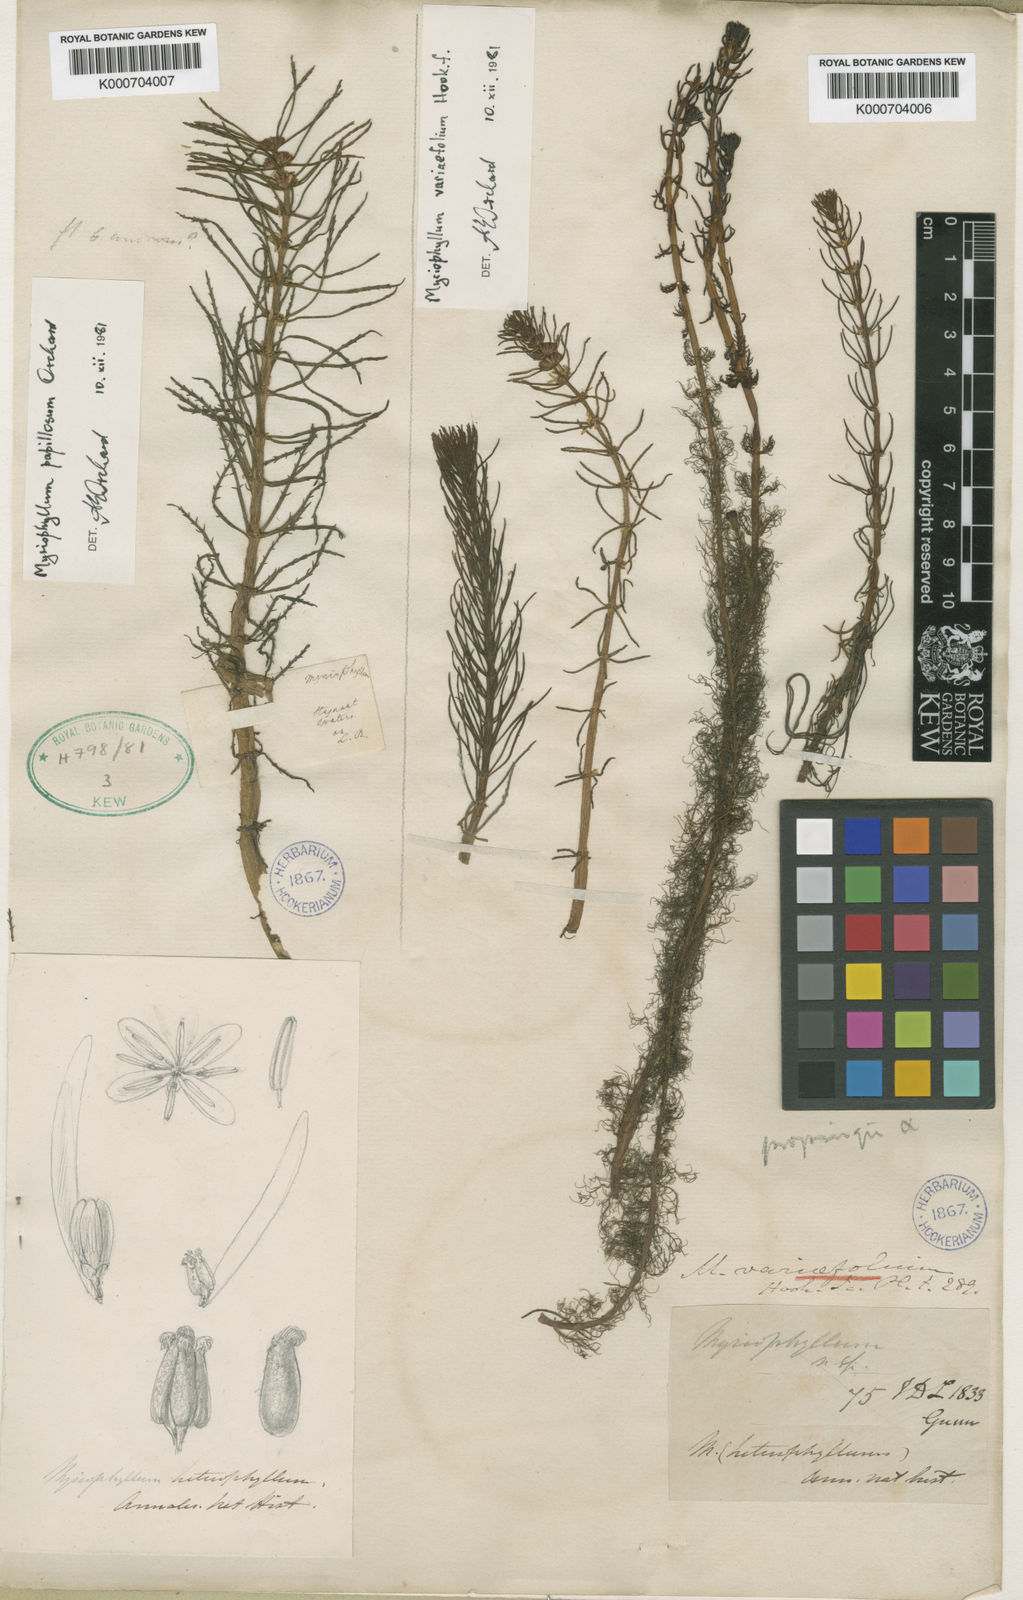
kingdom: Plantae
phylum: Tracheophyta
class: Magnoliopsida
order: Saxifragales
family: Haloragaceae
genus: Myriophyllum
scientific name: Myriophyllum variifolium
